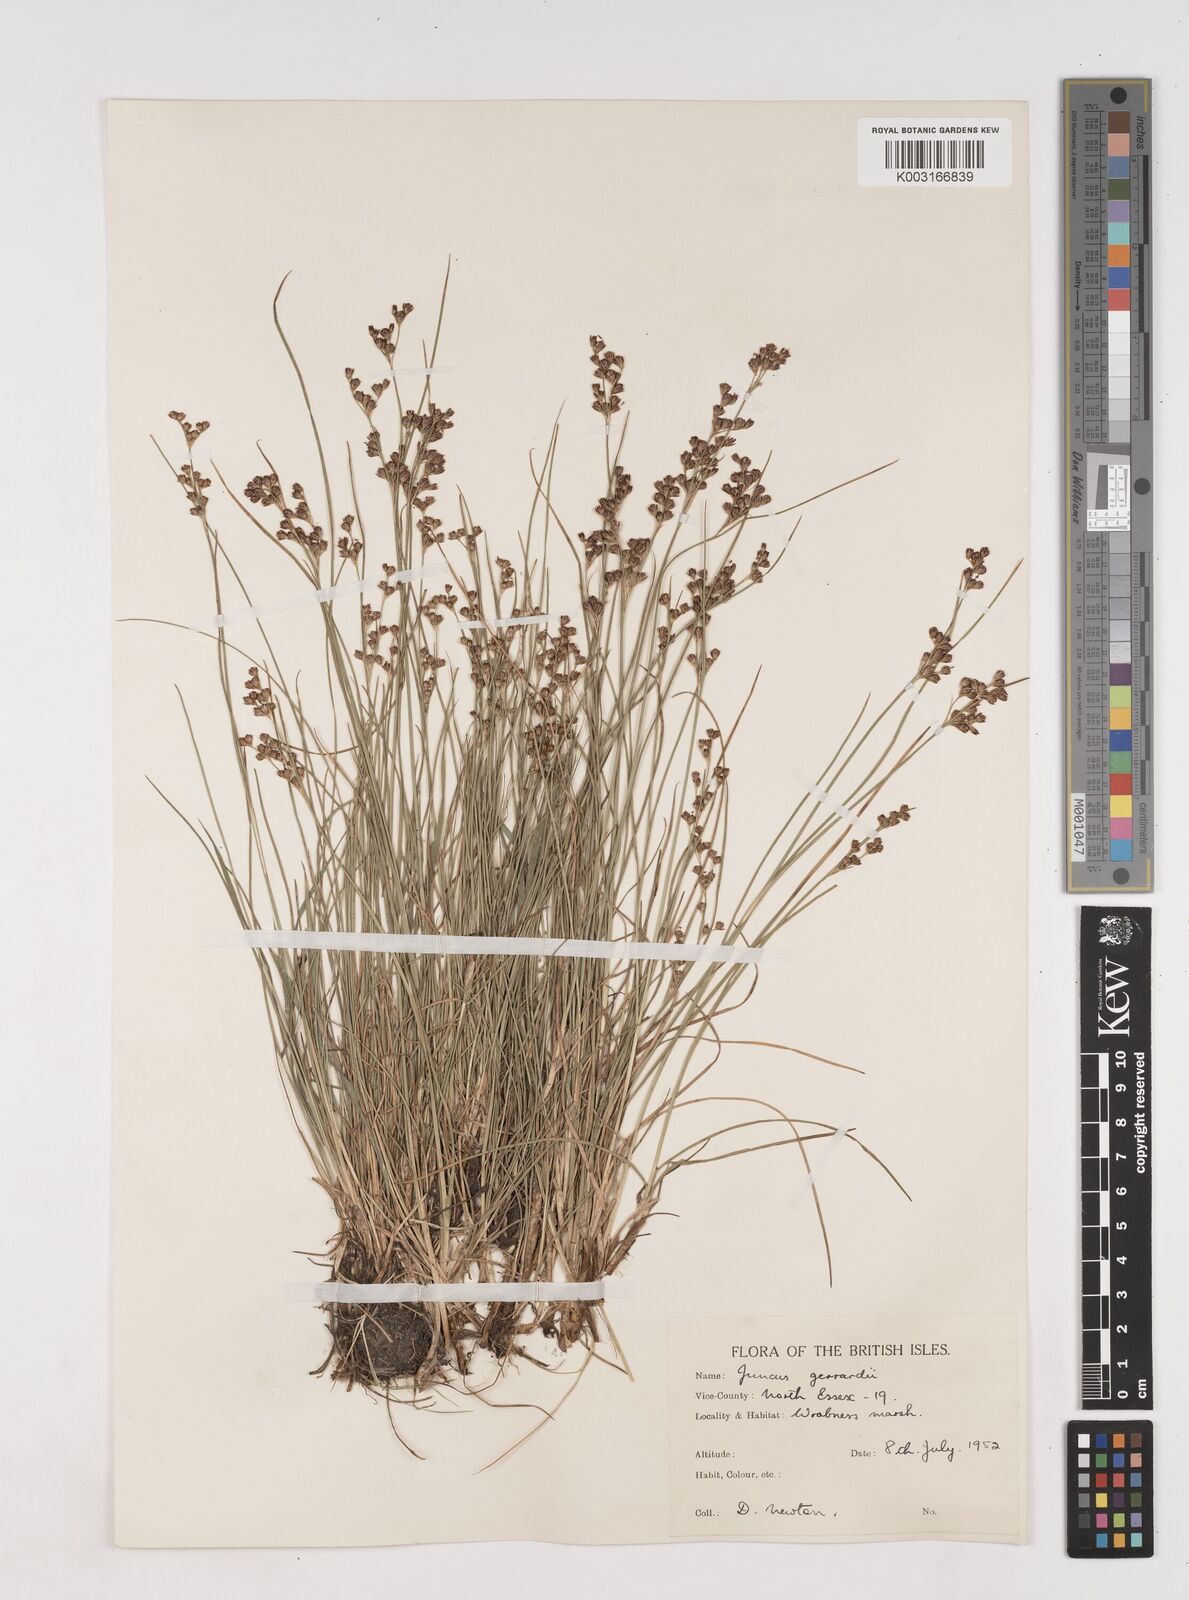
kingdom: Plantae
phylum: Tracheophyta
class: Liliopsida
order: Poales
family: Juncaceae
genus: Juncus
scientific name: Juncus gerardi
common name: Saltmarsh rush
